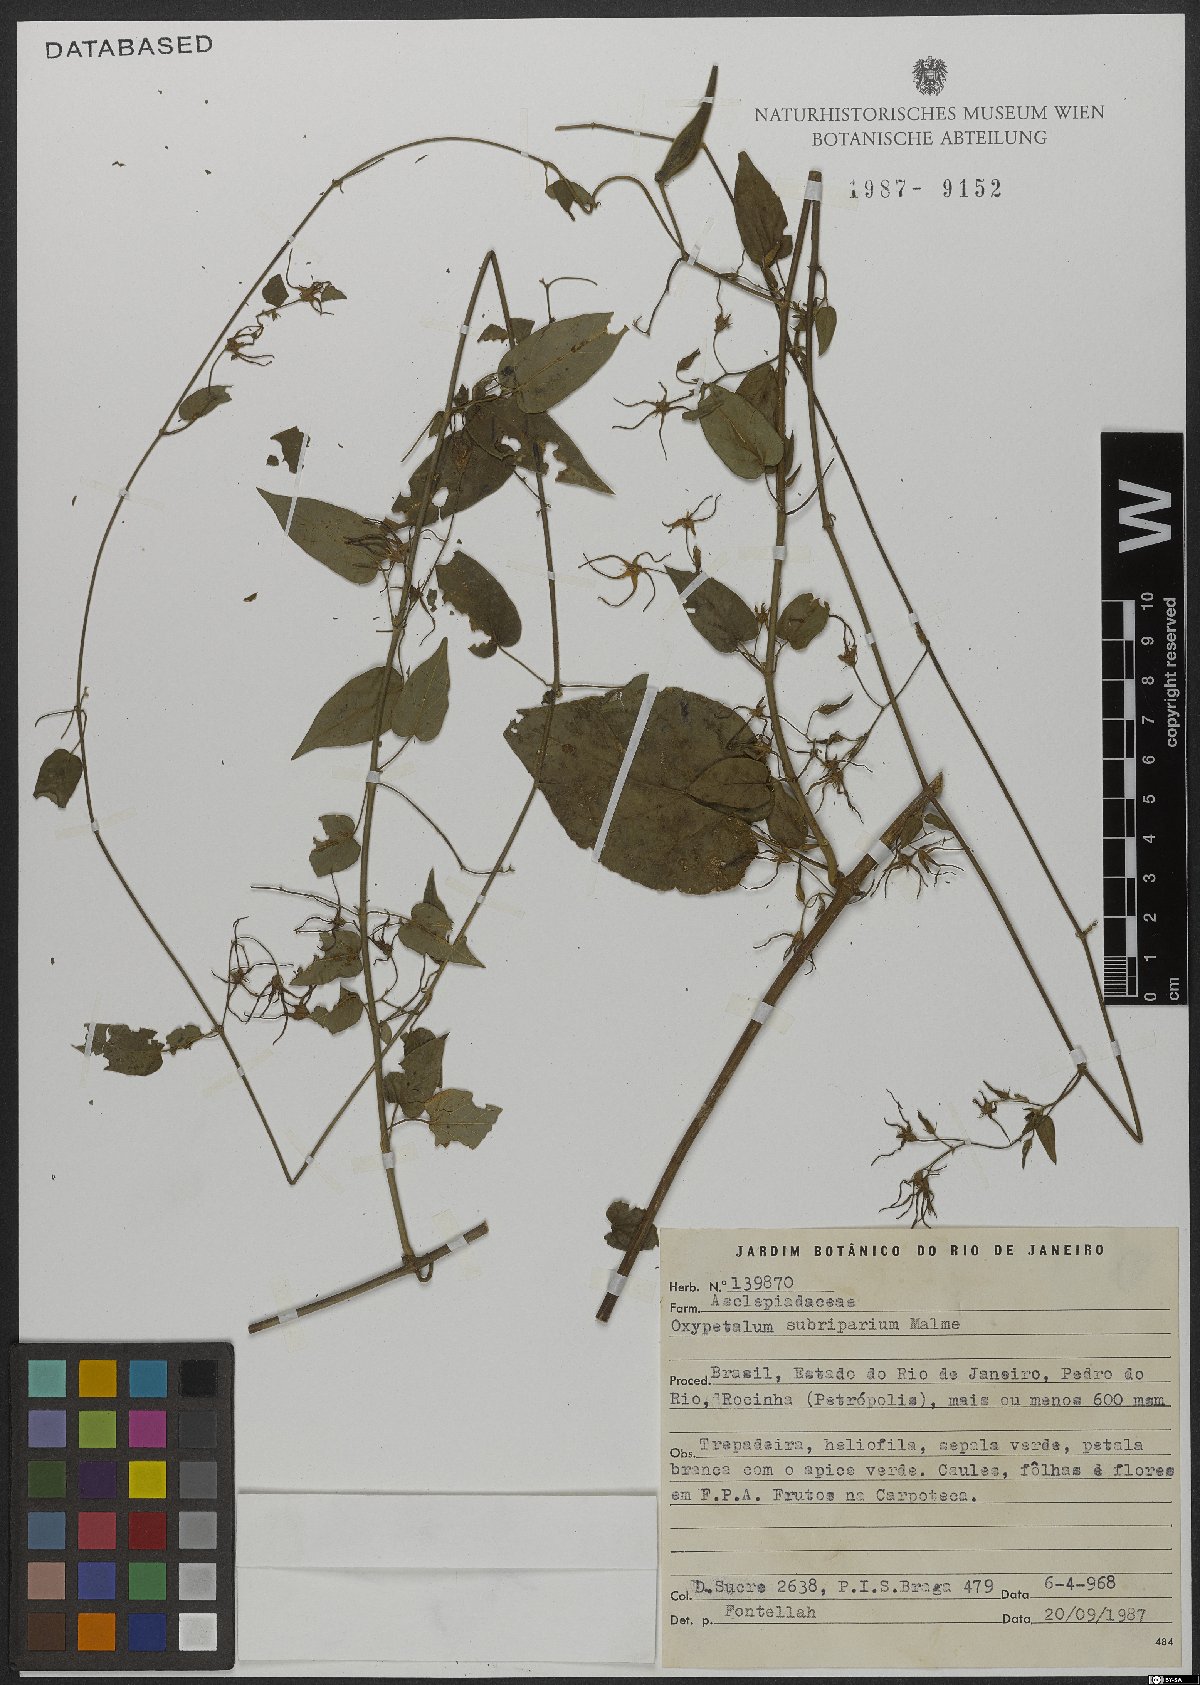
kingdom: Plantae
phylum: Tracheophyta
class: Magnoliopsida
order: Gentianales
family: Apocynaceae
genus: Oxypetalum
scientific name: Oxypetalum cordifolium
